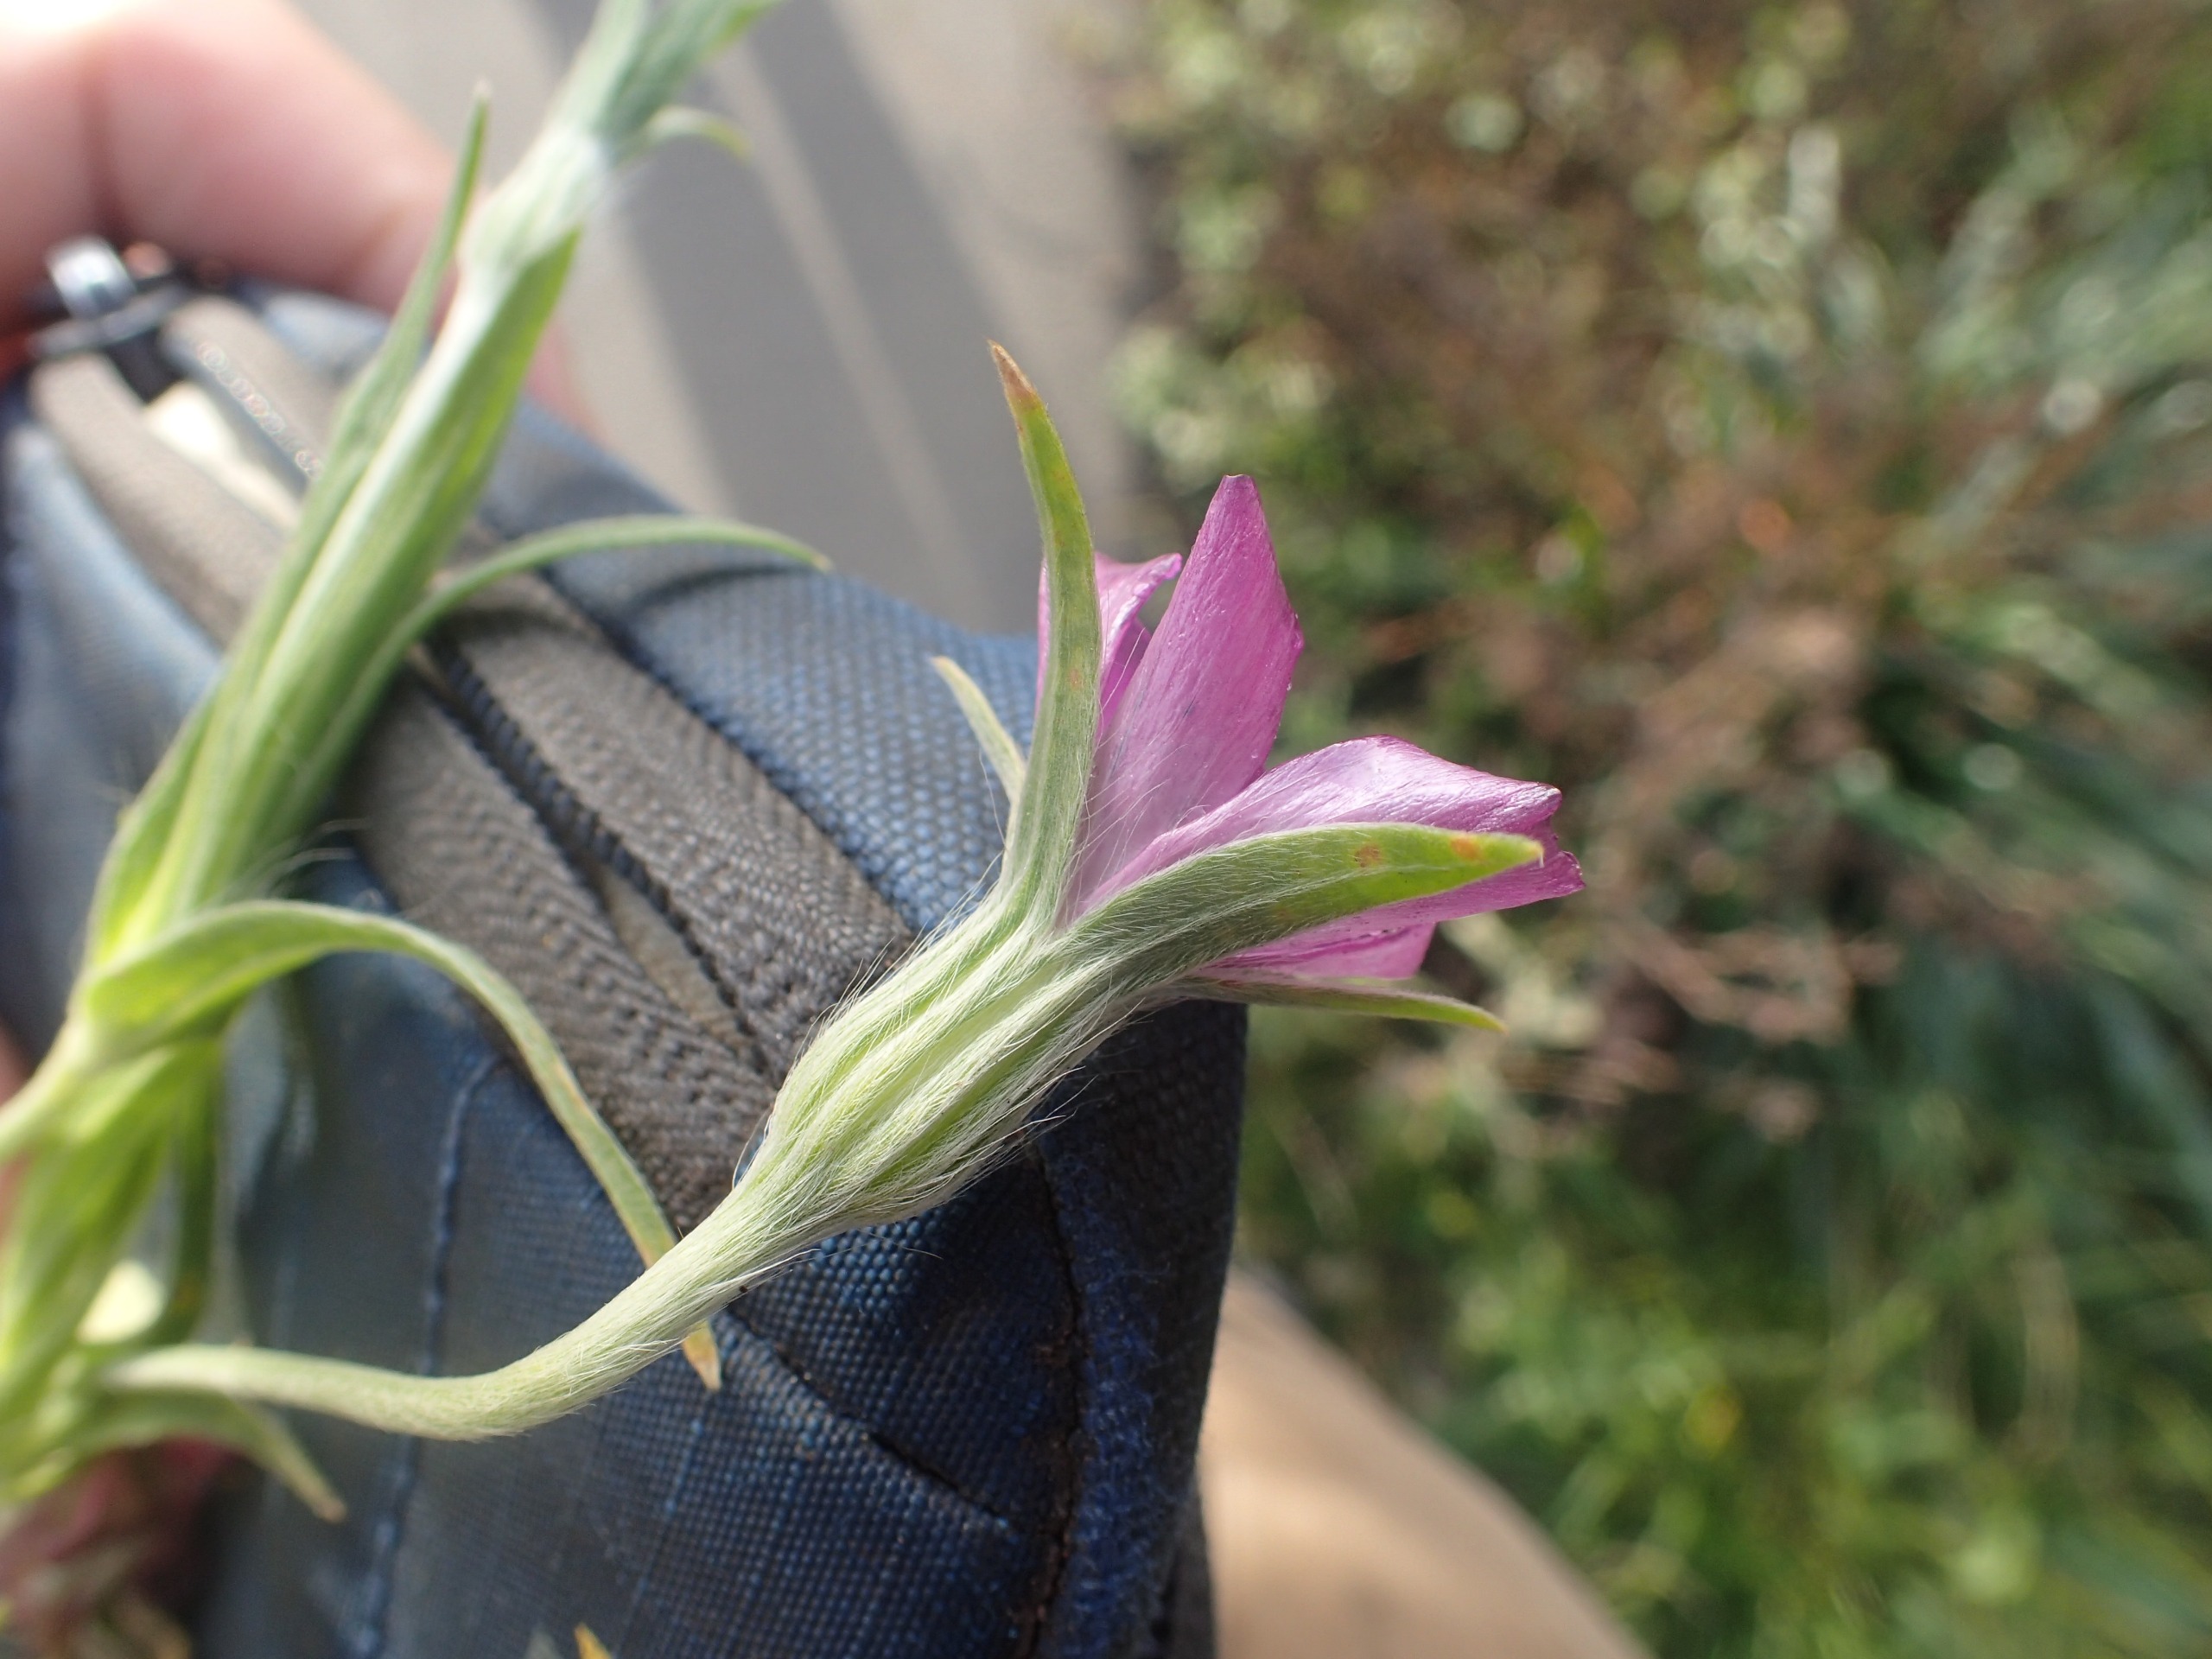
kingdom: Plantae
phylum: Tracheophyta
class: Magnoliopsida
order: Caryophyllales
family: Caryophyllaceae
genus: Agrostemma
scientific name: Agrostemma githago
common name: Klinte
